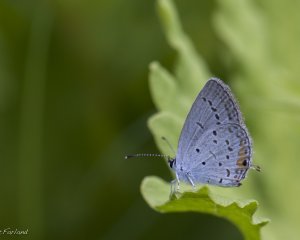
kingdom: Animalia
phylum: Arthropoda
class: Insecta
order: Lepidoptera
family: Lycaenidae
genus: Elkalyce
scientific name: Elkalyce comyntas
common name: Eastern Tailed-Blue
